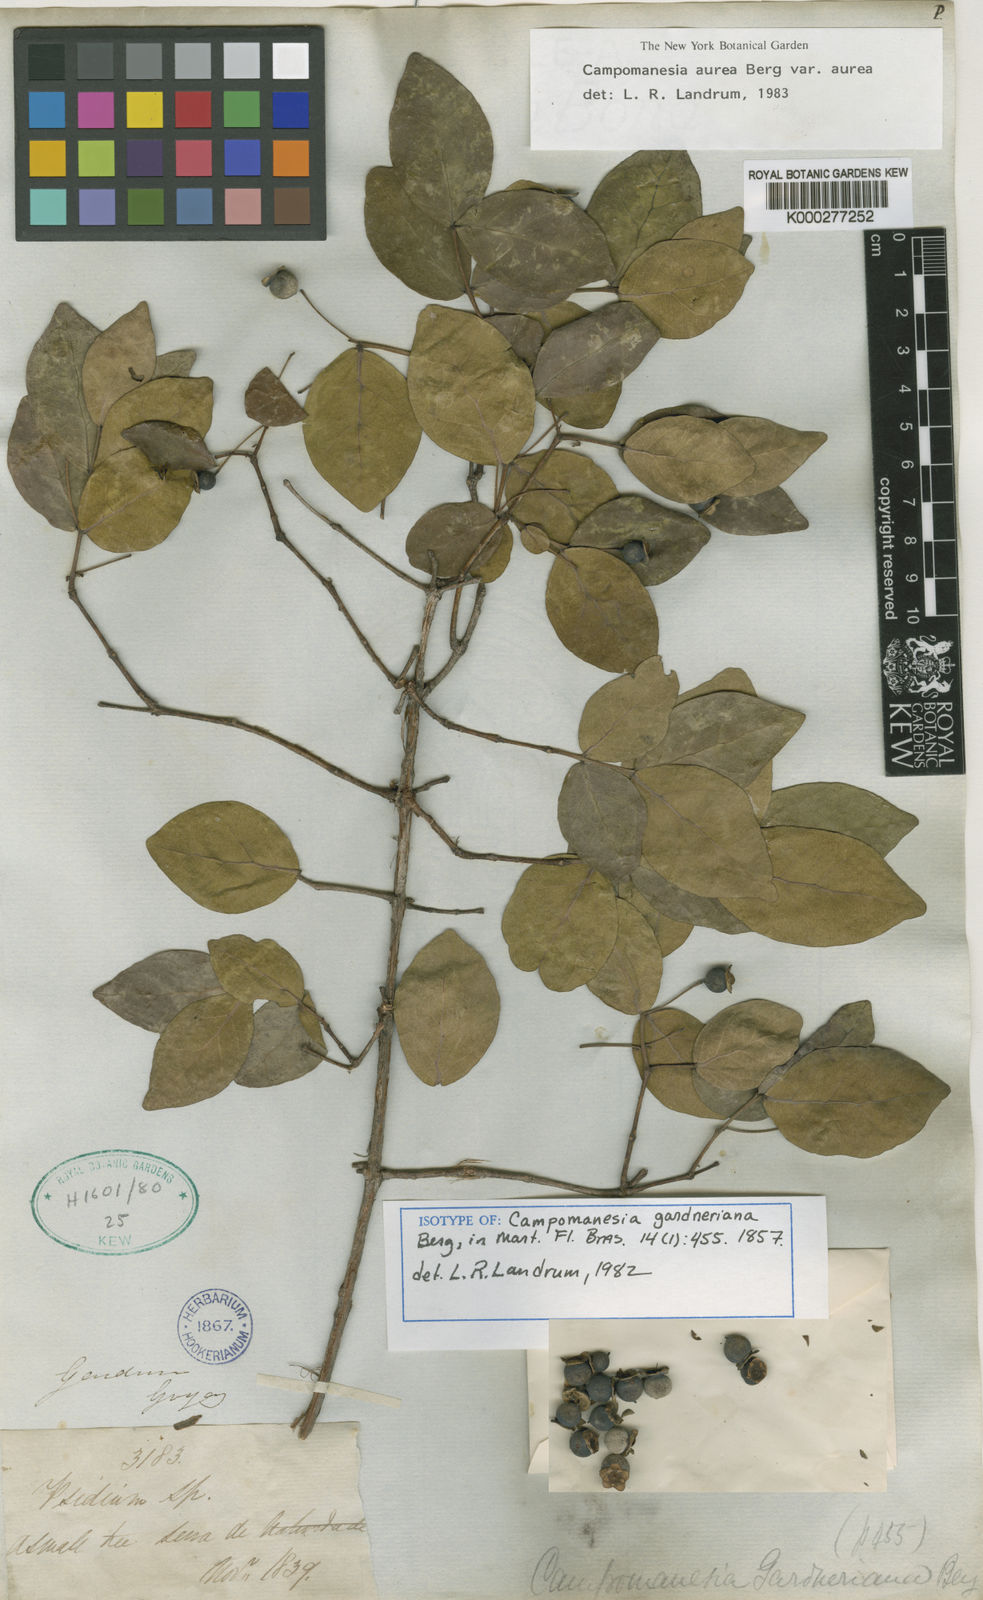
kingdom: Plantae
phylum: Tracheophyta
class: Magnoliopsida
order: Myrtales
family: Myrtaceae
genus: Campomanesia
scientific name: Campomanesia aurea
